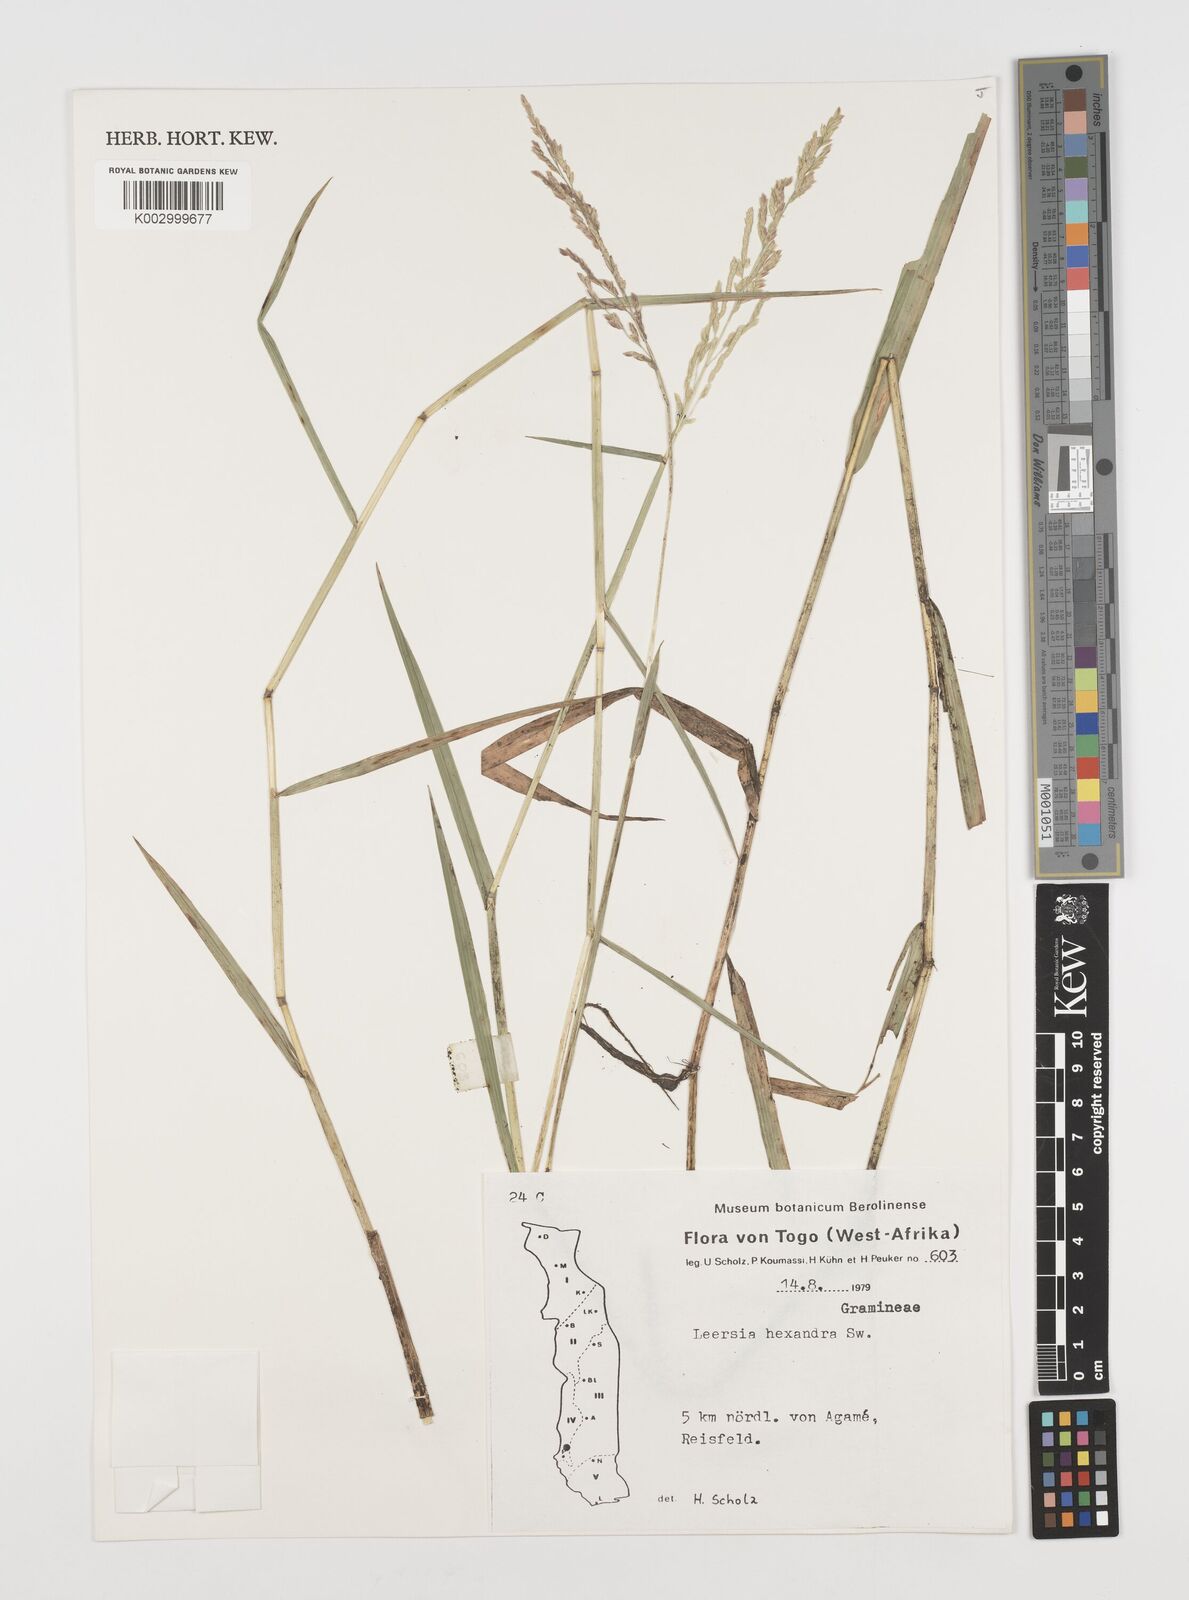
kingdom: Plantae
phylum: Tracheophyta
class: Liliopsida
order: Poales
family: Poaceae
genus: Leersia
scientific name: Leersia hexandra
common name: Southern cut grass
